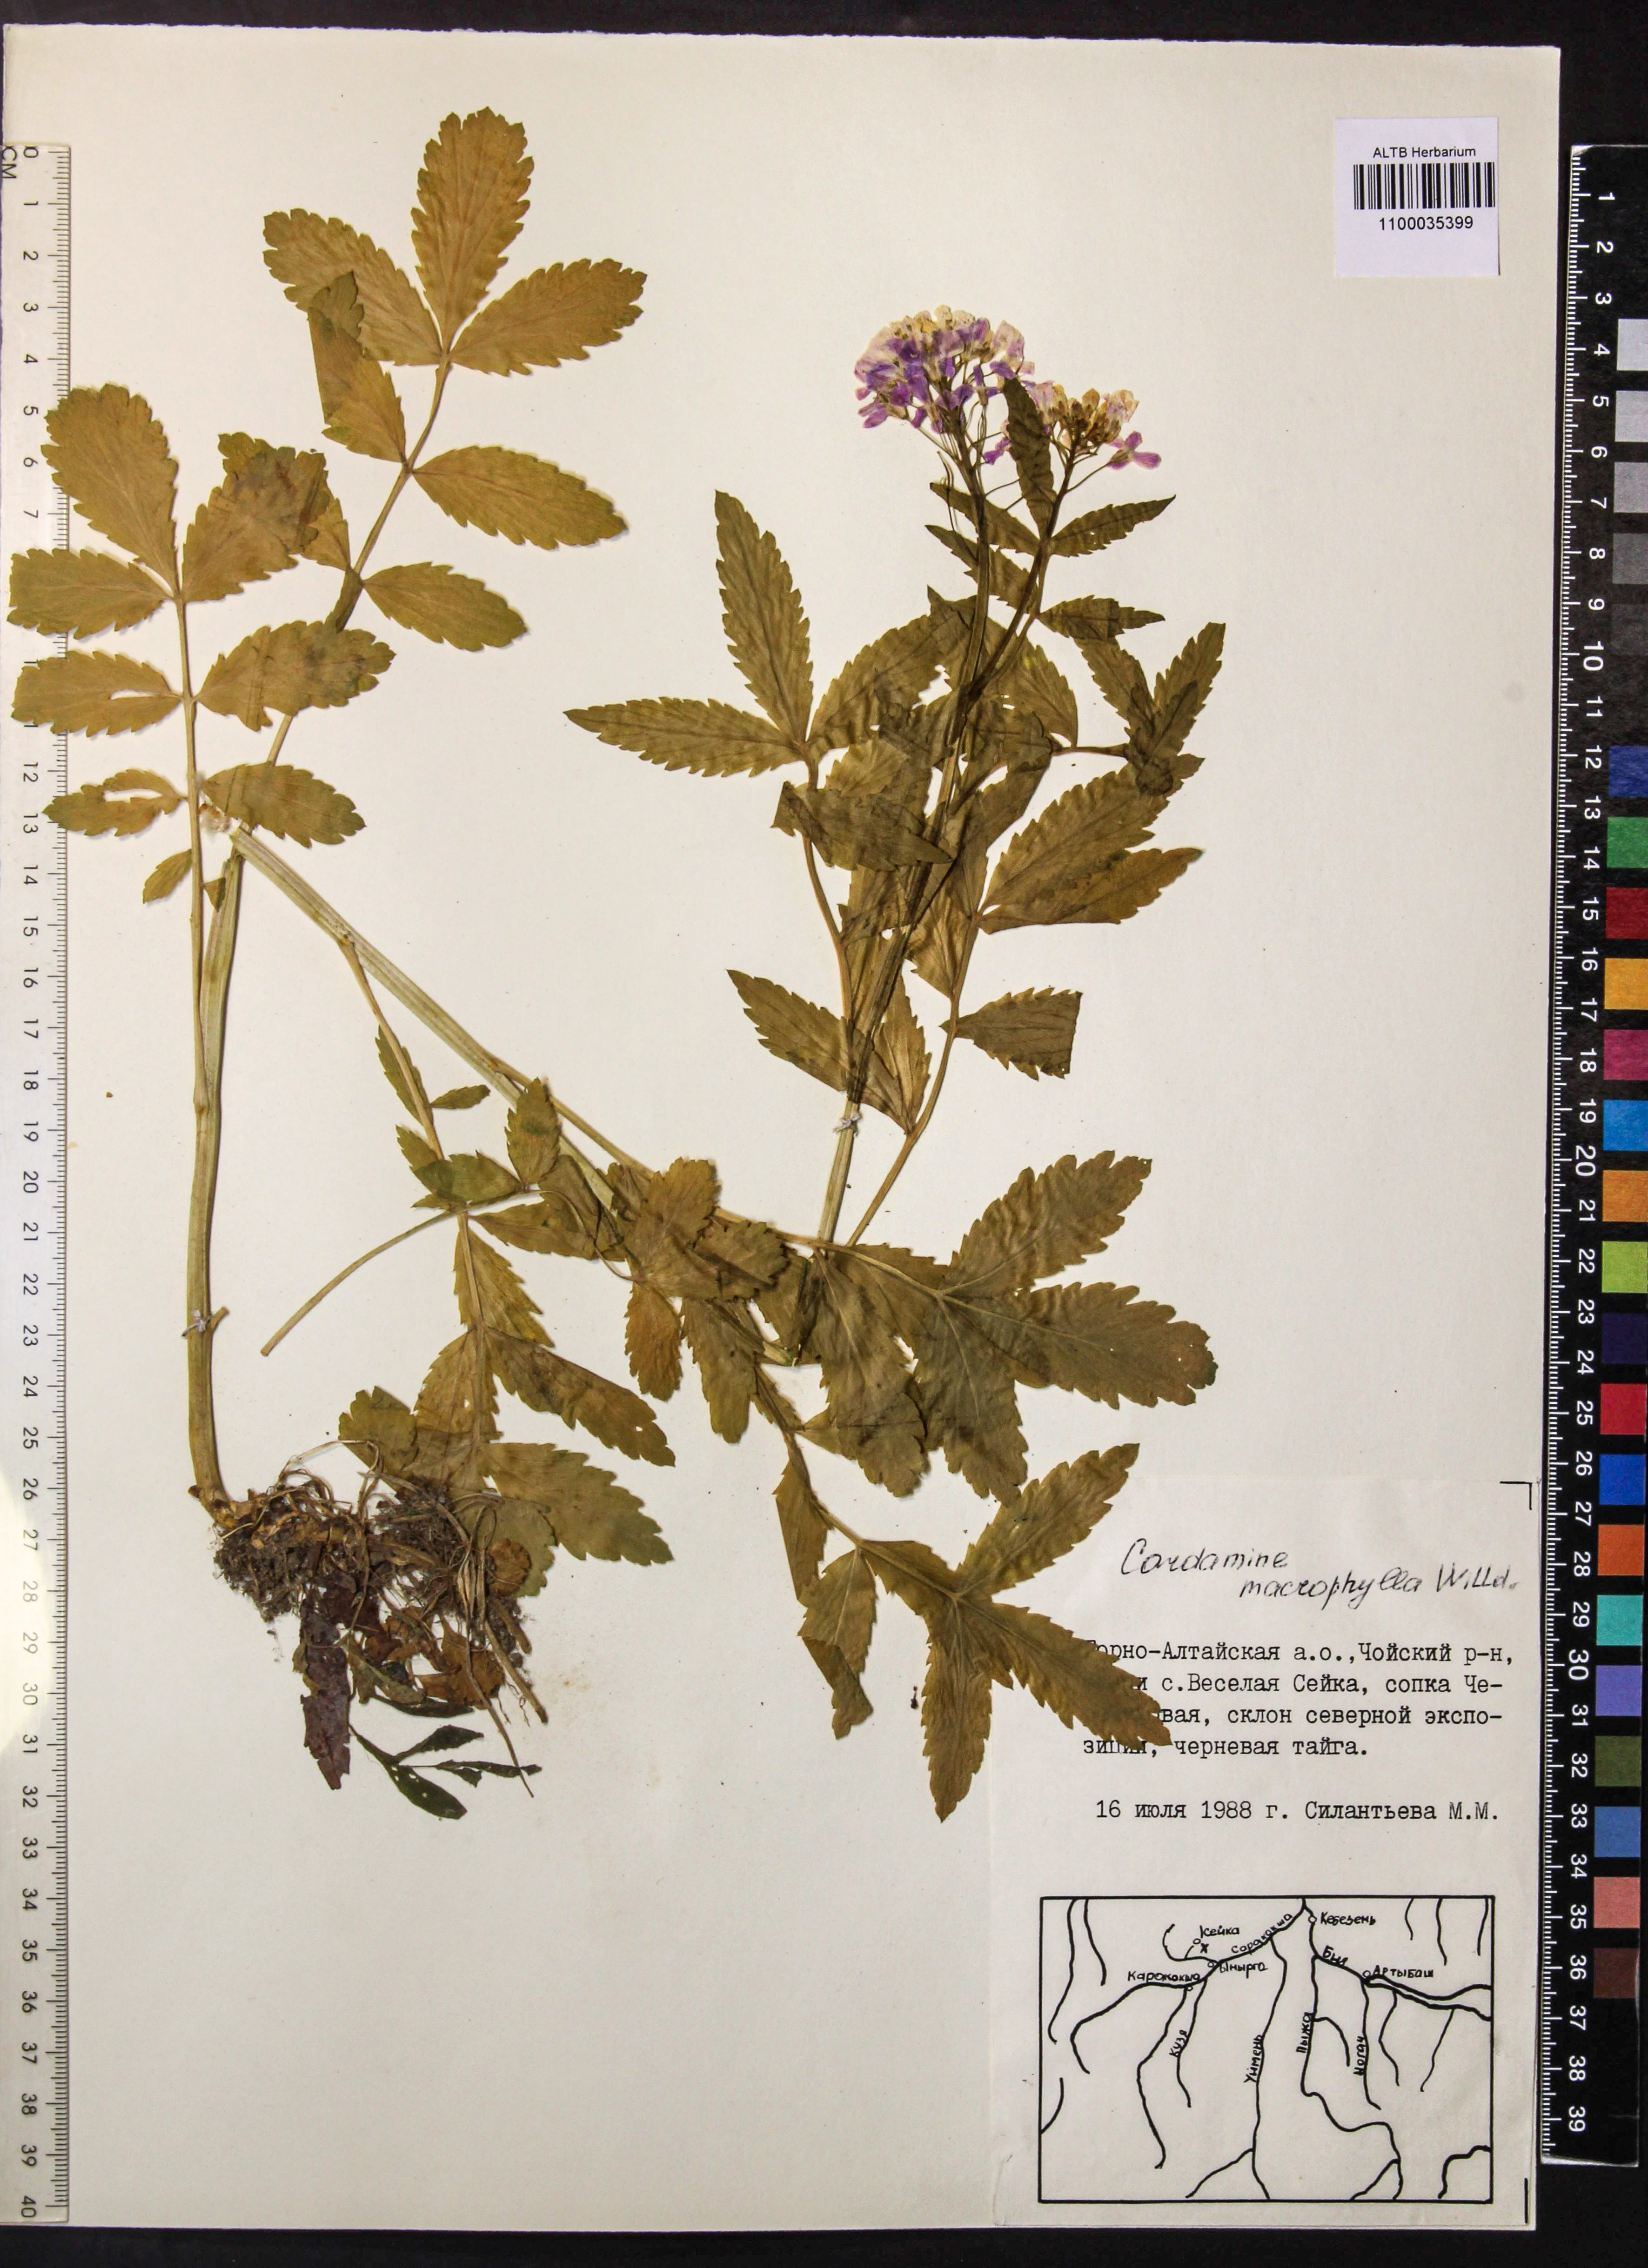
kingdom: Plantae
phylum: Tracheophyta
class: Magnoliopsida
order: Brassicales
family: Brassicaceae
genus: Cardamine
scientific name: Cardamine macrophylla
